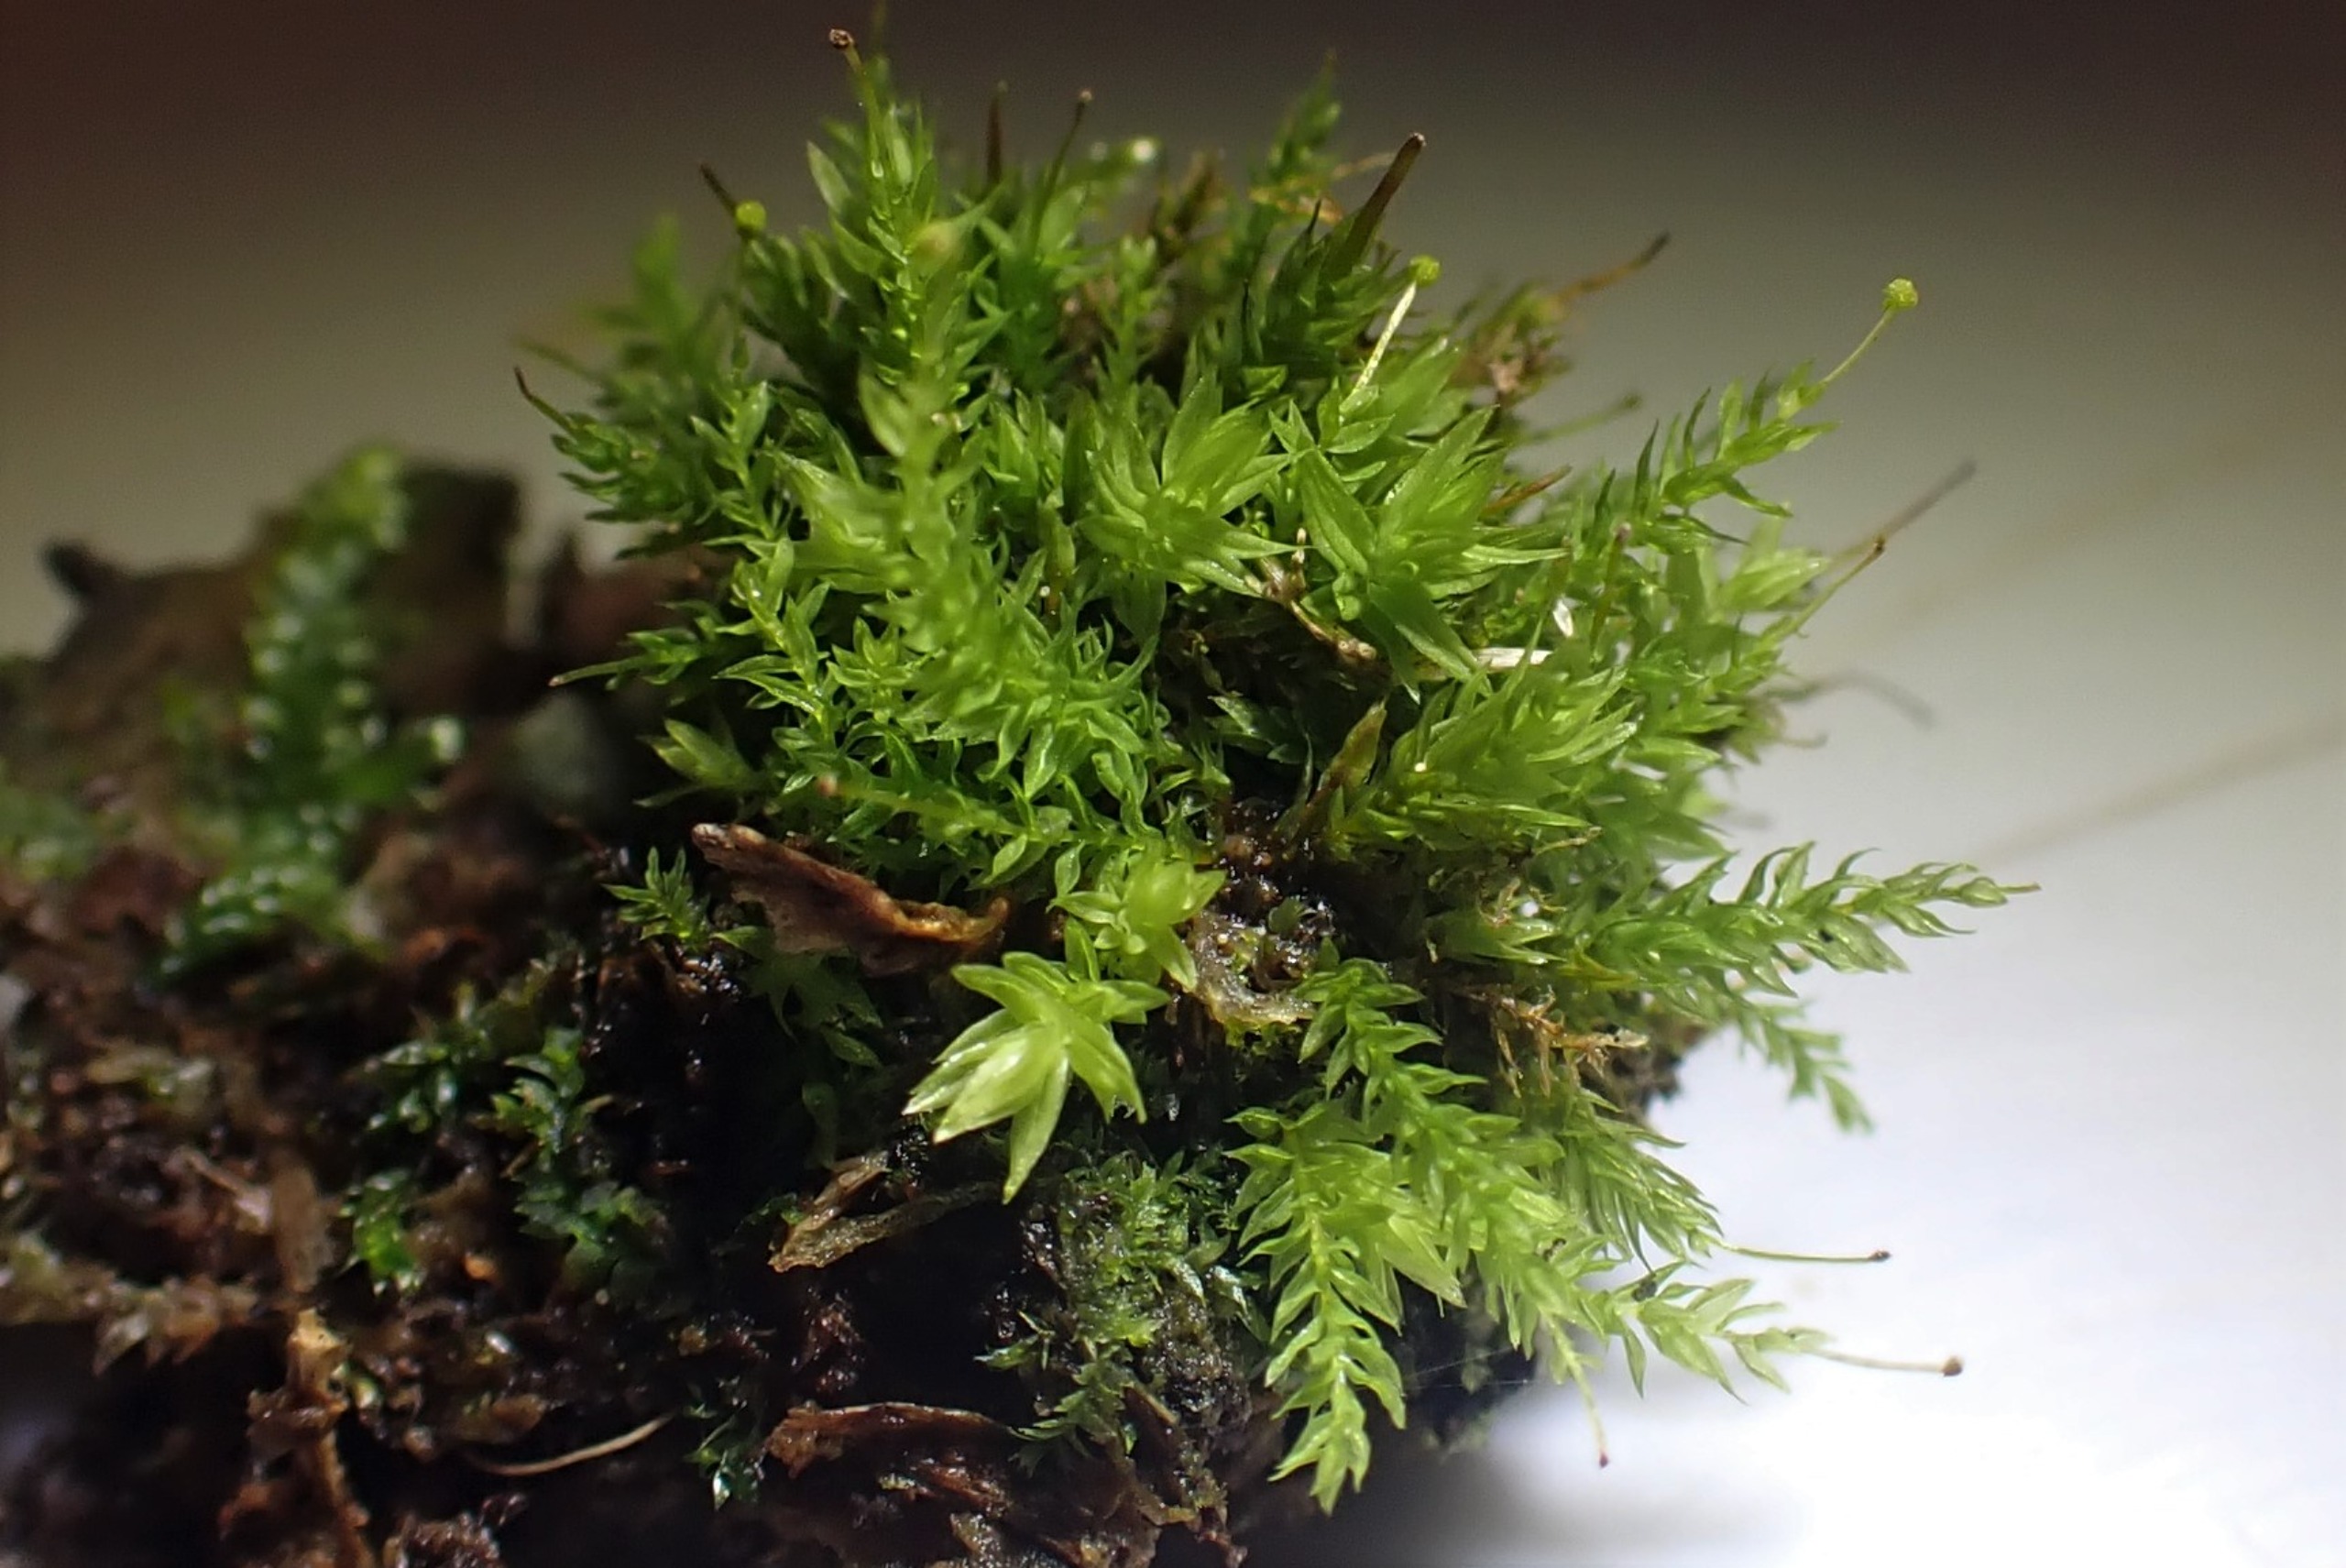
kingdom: Plantae
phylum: Bryophyta
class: Bryopsida
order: Aulacomniales
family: Aulacomniaceae
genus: Aulacomnium
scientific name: Aulacomnium androgynum
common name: Kugle-filtmos
